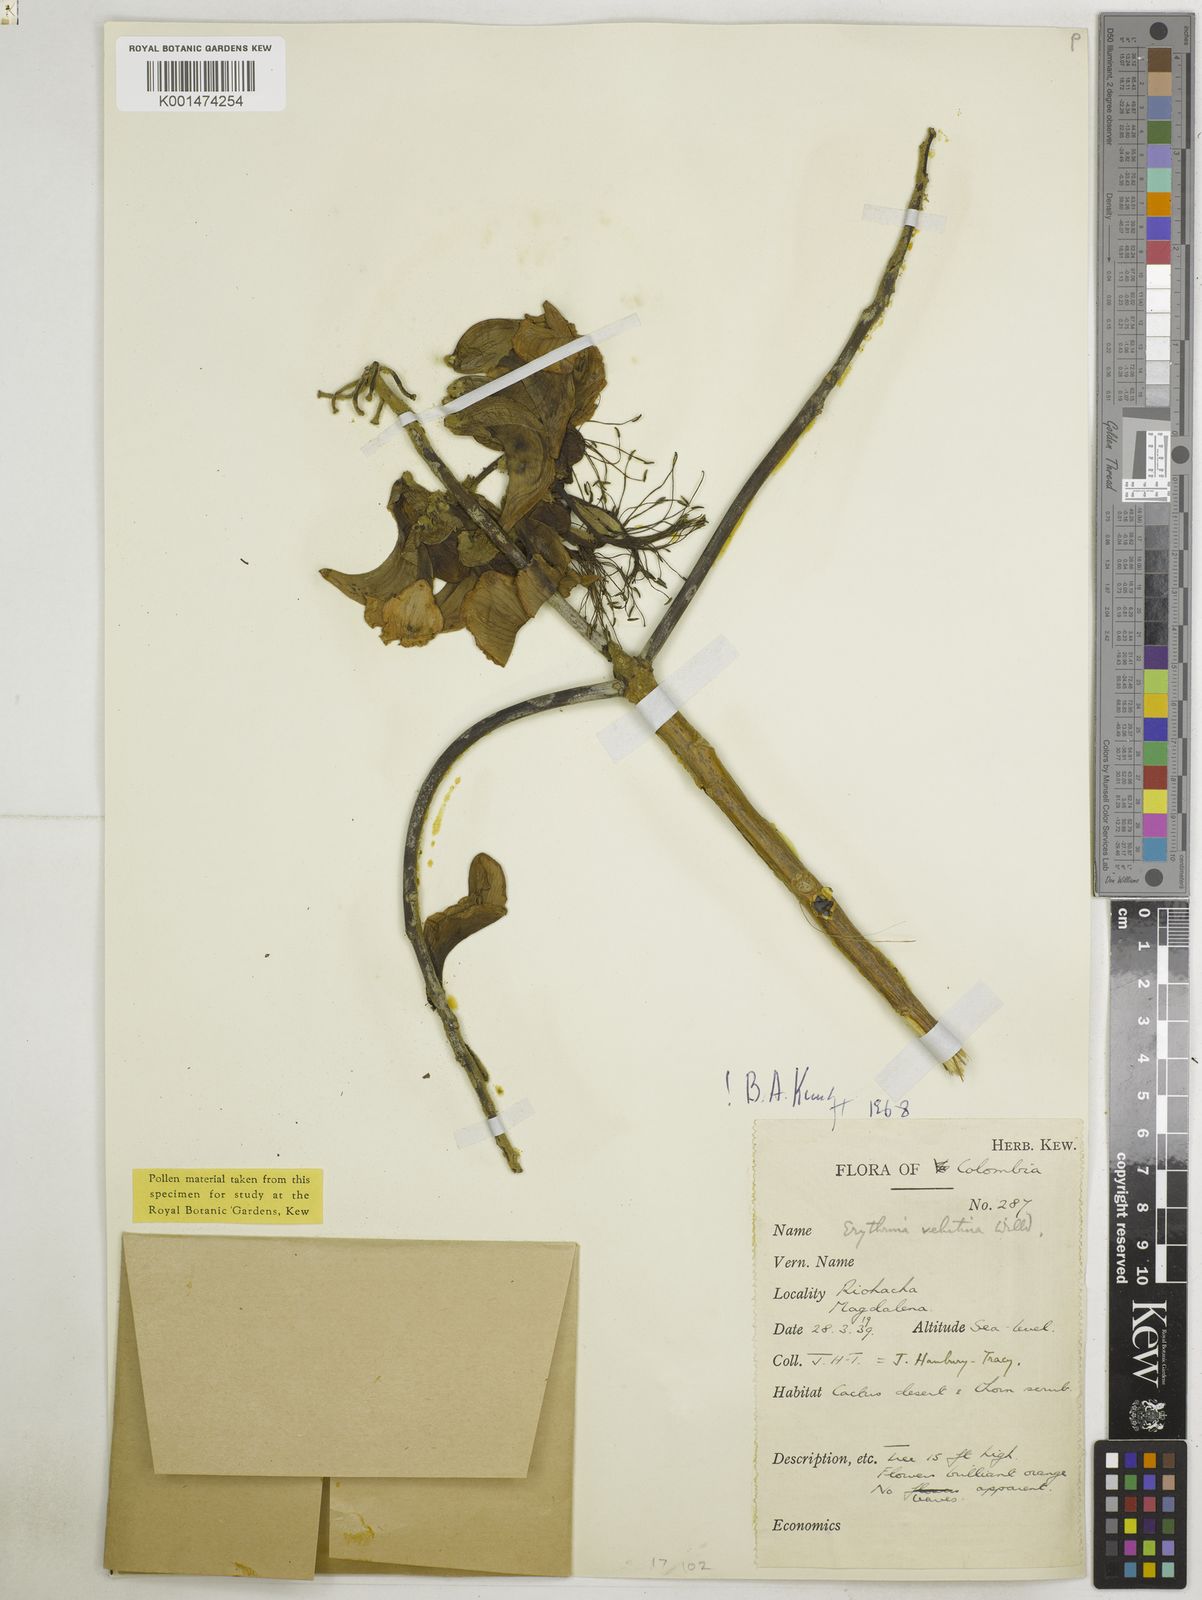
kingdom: Plantae
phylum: Tracheophyta
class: Magnoliopsida
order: Fabales
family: Fabaceae
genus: Erythrina
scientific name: Erythrina velutina
